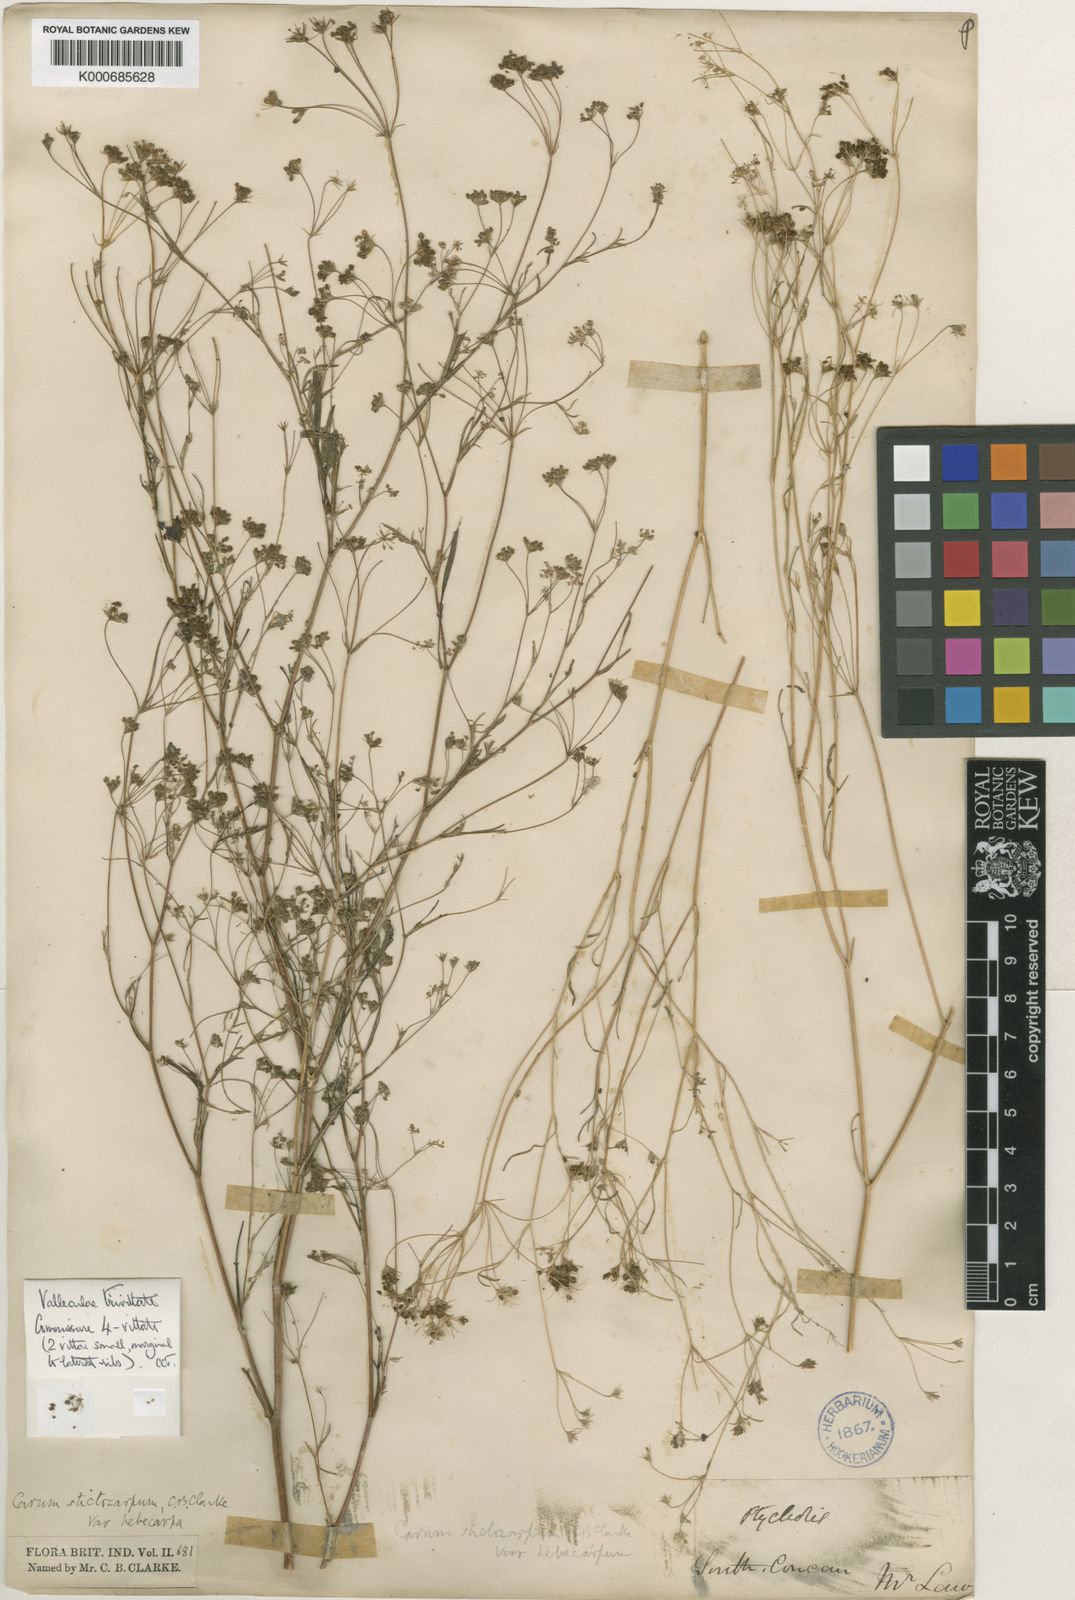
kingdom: Plantae
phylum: Tracheophyta
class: Magnoliopsida
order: Apiales
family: Apiaceae
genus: Psammogeton
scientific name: Psammogeton involucratum
